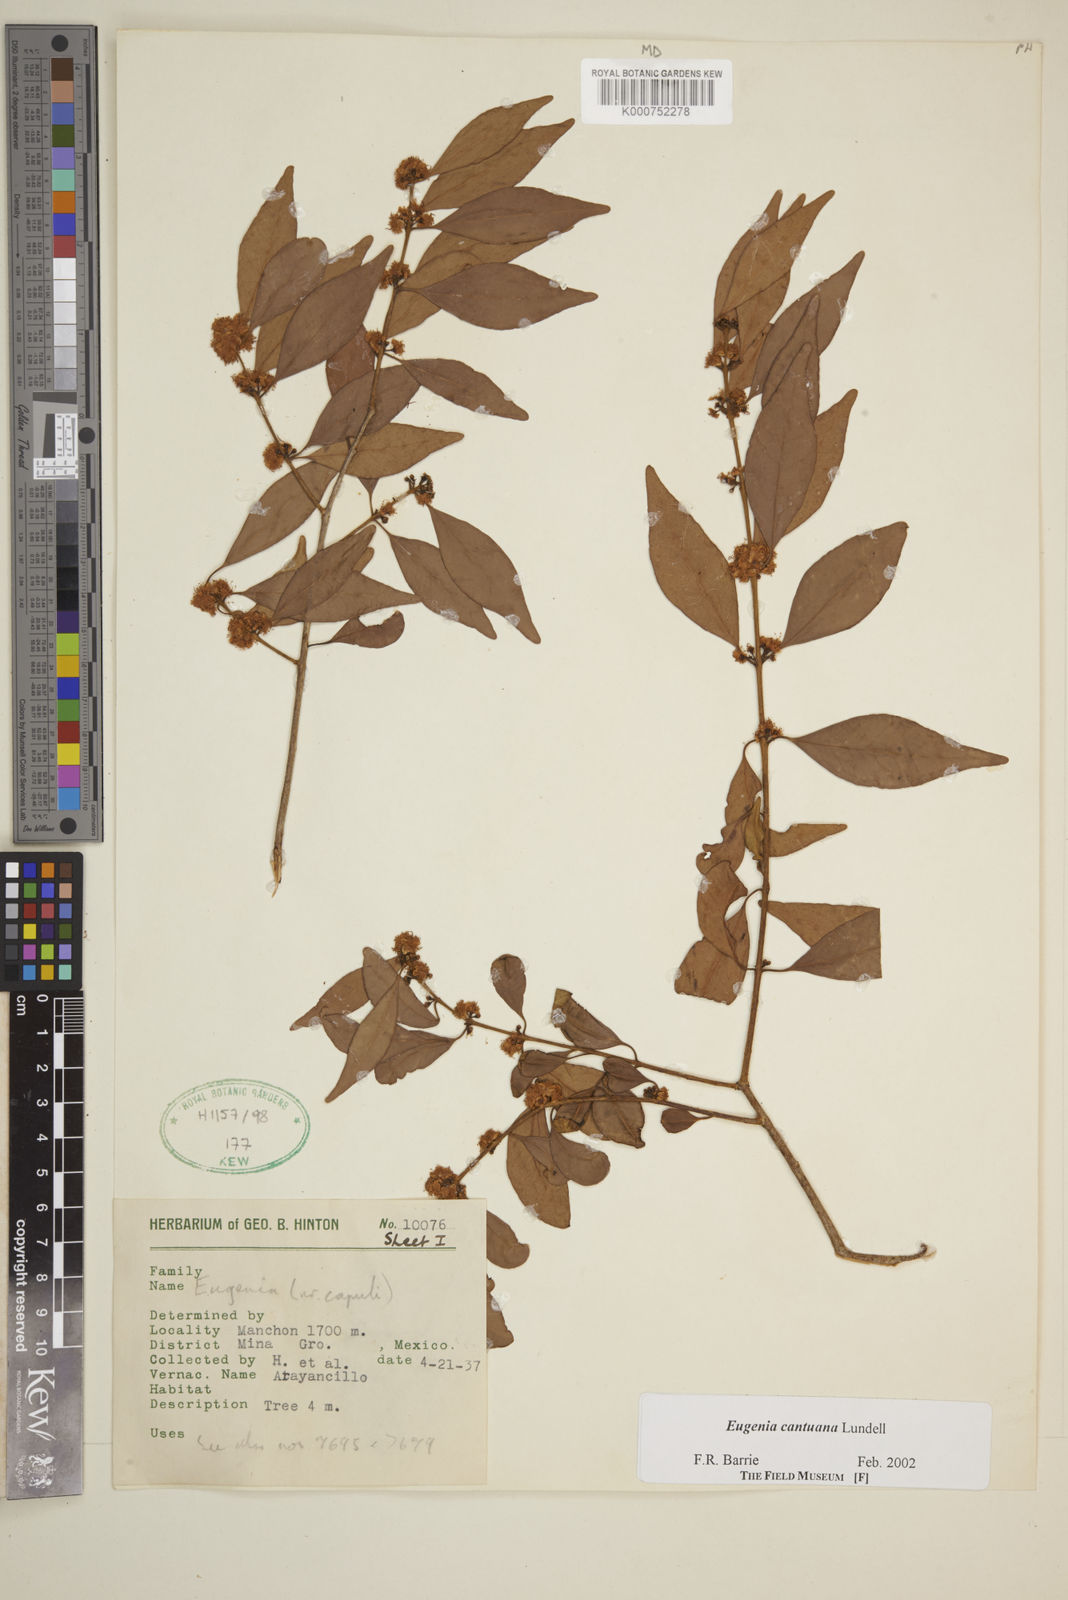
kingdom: Plantae
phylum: Tracheophyta
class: Magnoliopsida
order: Myrtales
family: Myrtaceae
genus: Eugenia
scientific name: Eugenia cantuana
